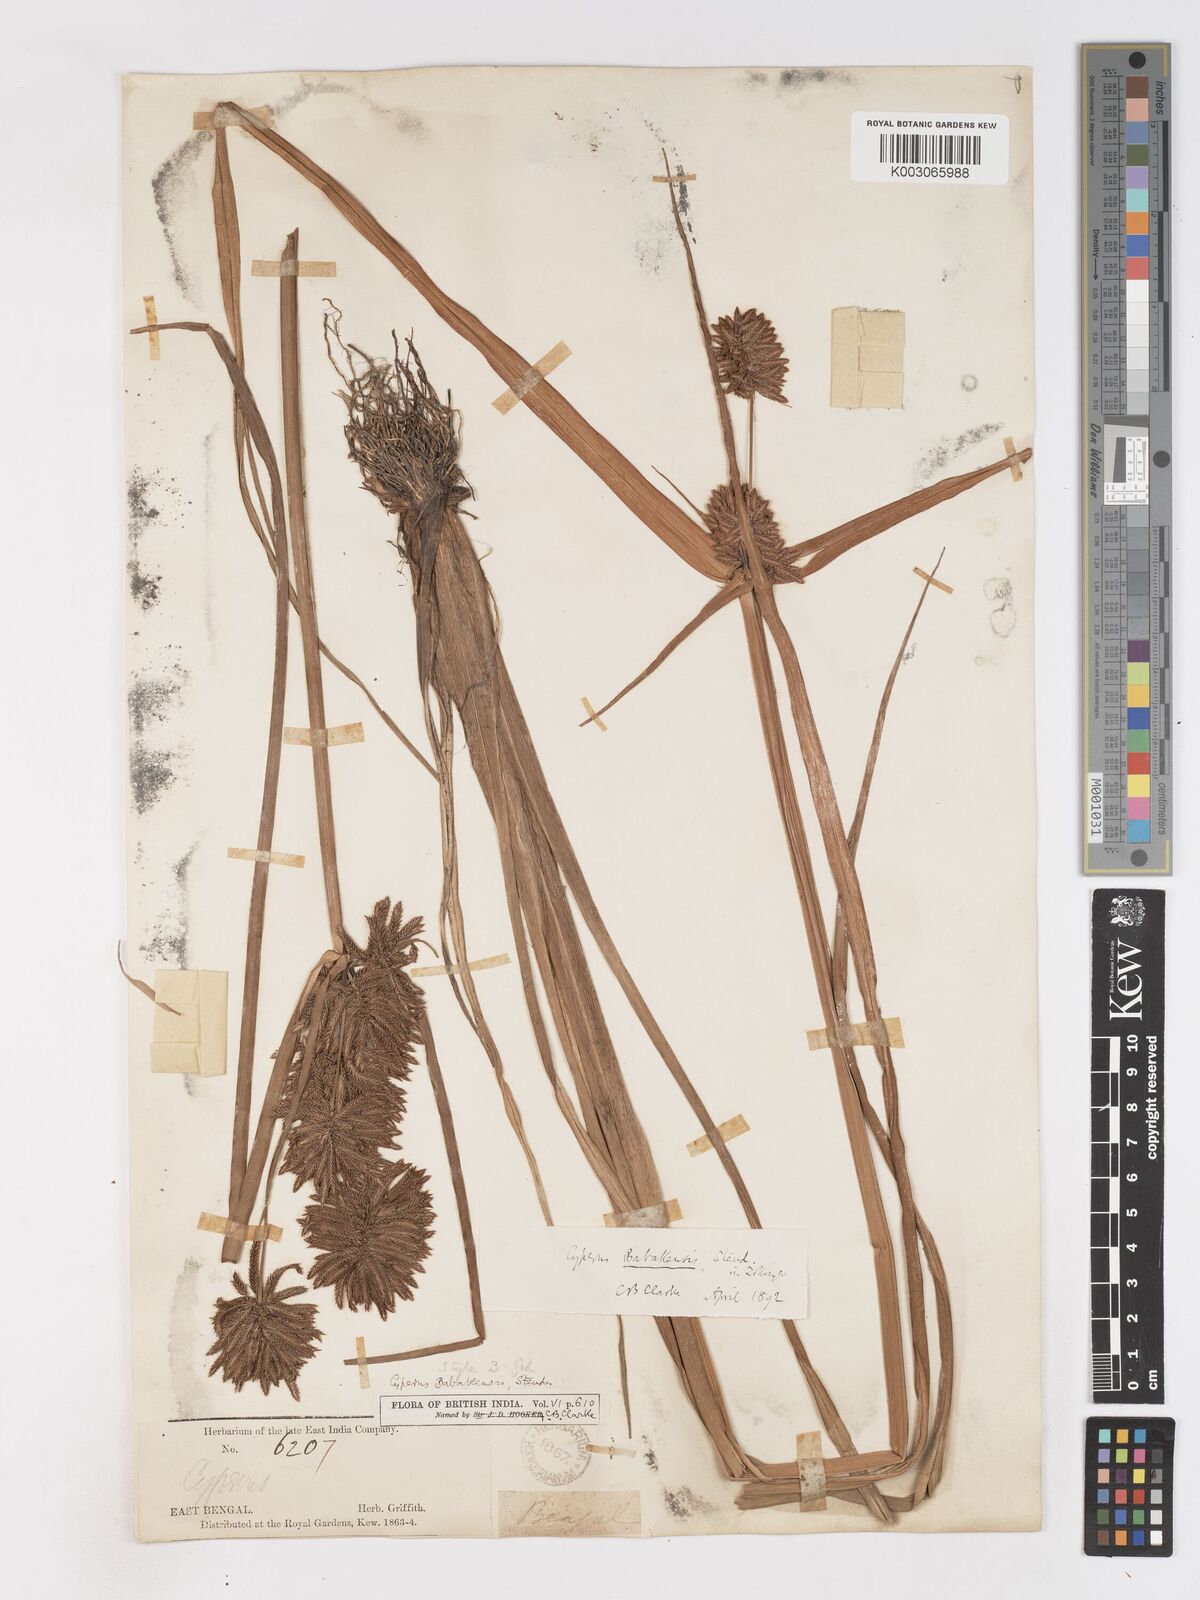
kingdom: Plantae
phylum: Tracheophyta
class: Liliopsida
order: Poales
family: Cyperaceae
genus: Cyperus
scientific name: Cyperus babakan
